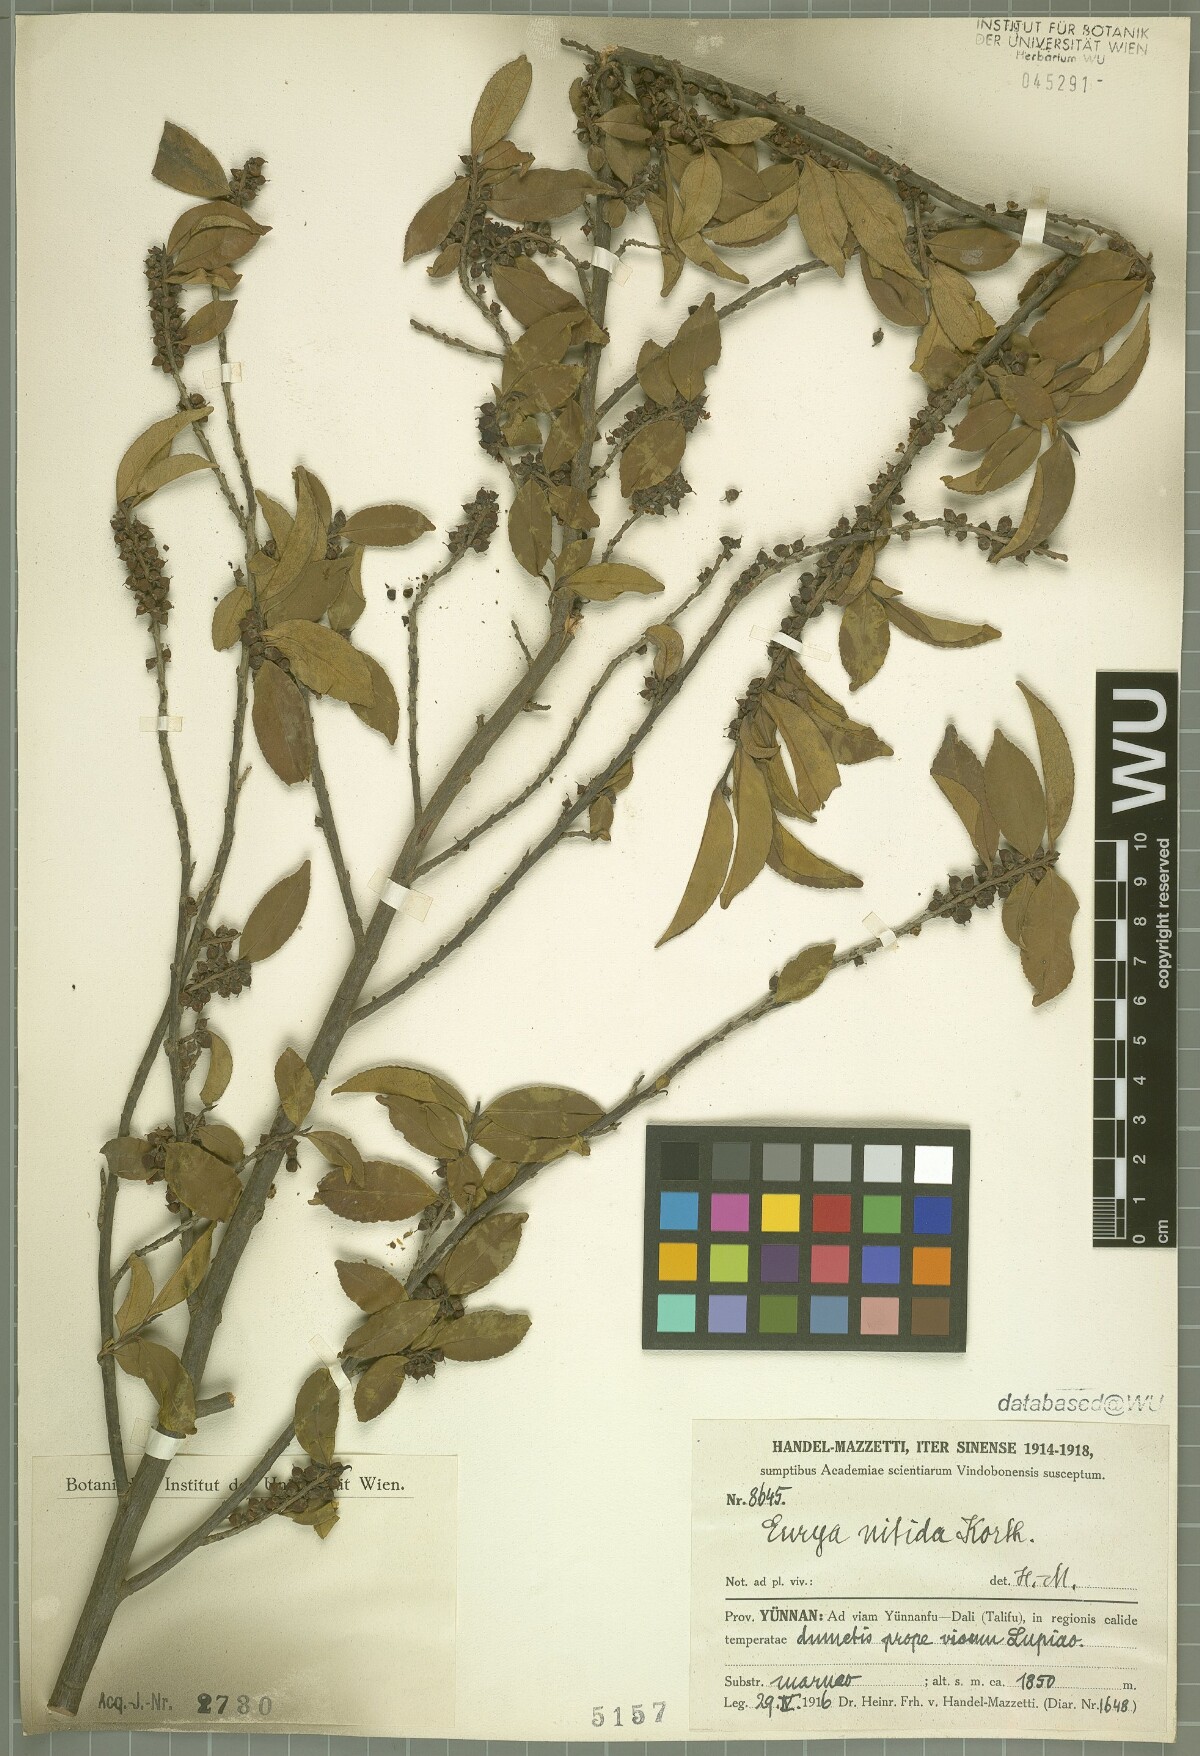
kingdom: Plantae
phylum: Tracheophyta
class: Magnoliopsida
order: Ericales
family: Pentaphylacaceae
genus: Eurya
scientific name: Eurya nitida
